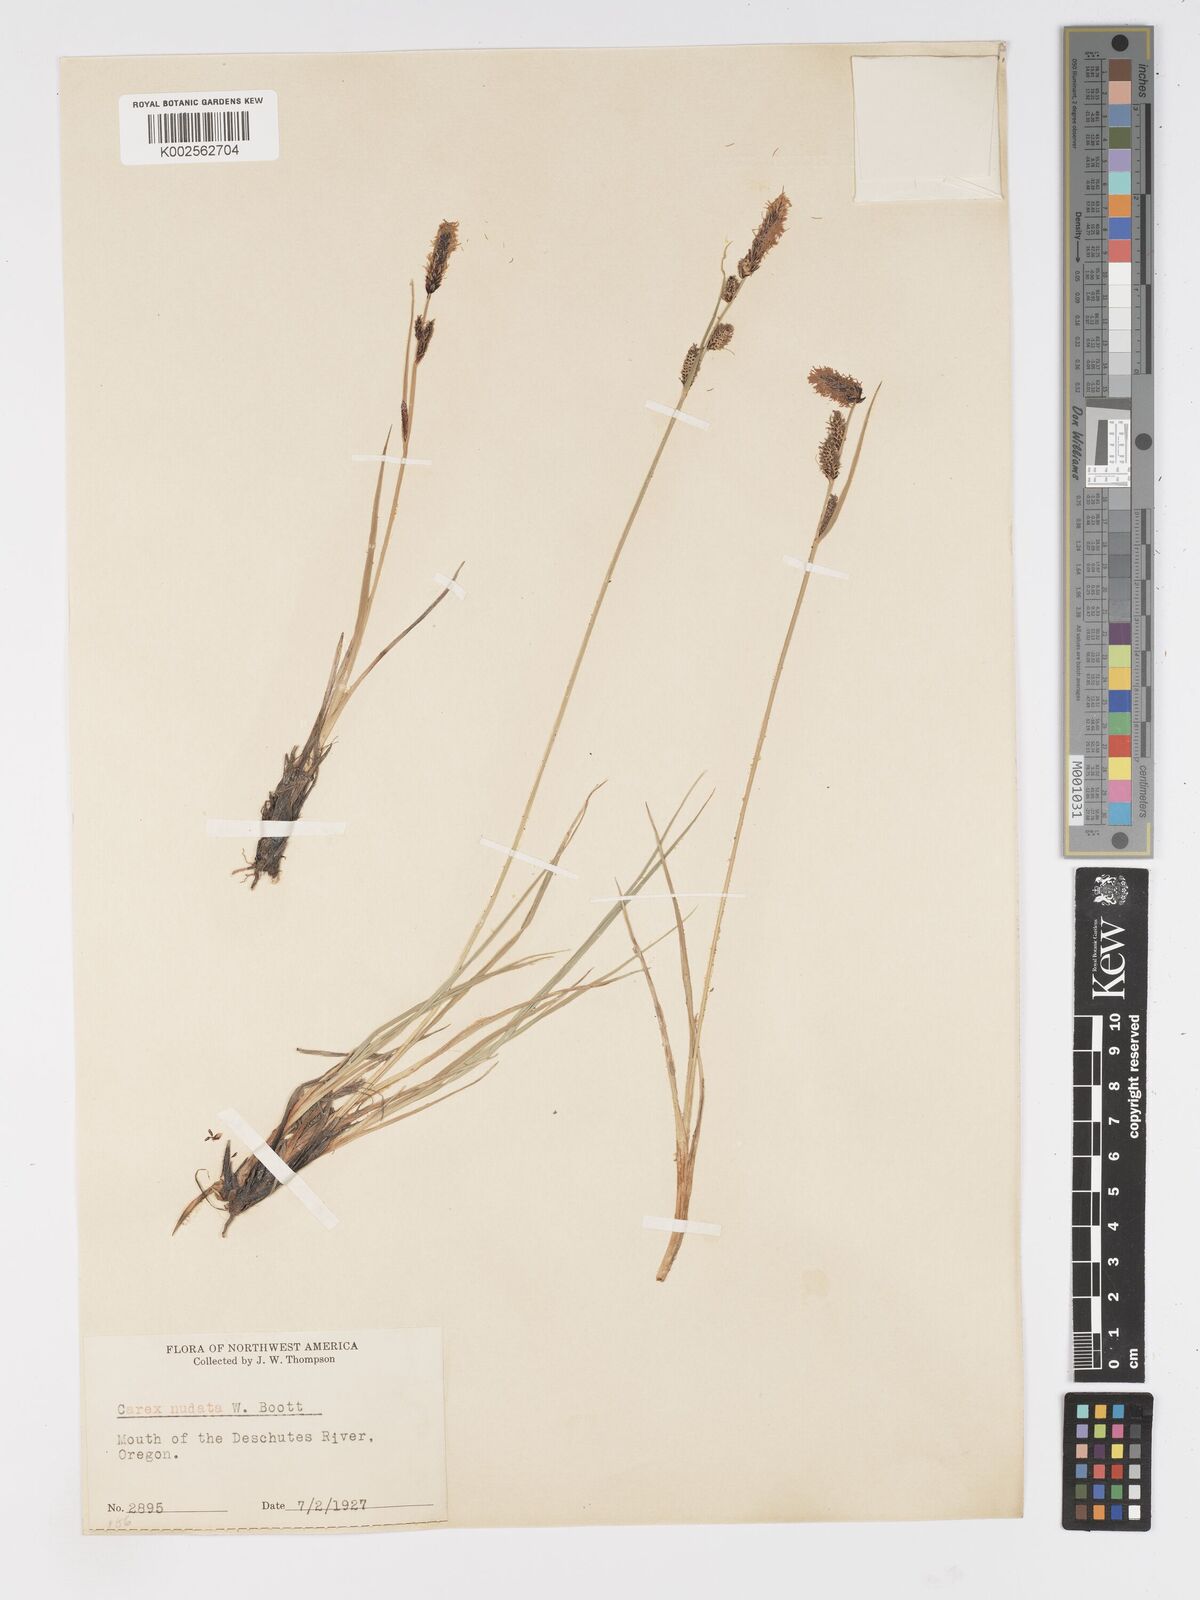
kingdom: Plantae
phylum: Tracheophyta
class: Liliopsida
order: Poales
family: Cyperaceae
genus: Carex
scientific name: Carex nudata
